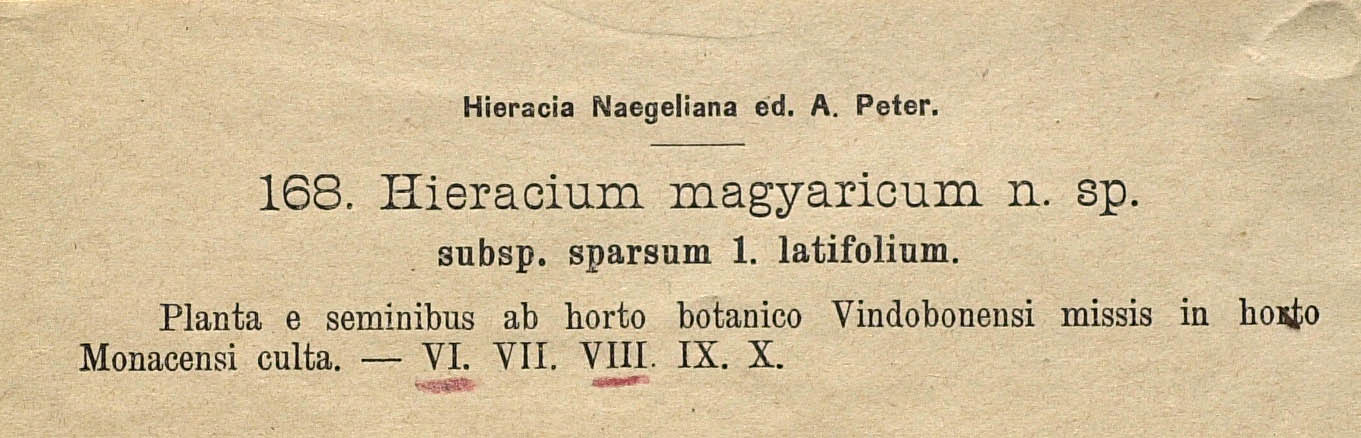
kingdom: Plantae
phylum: Tracheophyta
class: Magnoliopsida
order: Asterales
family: Asteraceae
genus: Pilosella
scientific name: Pilosella bauhini
